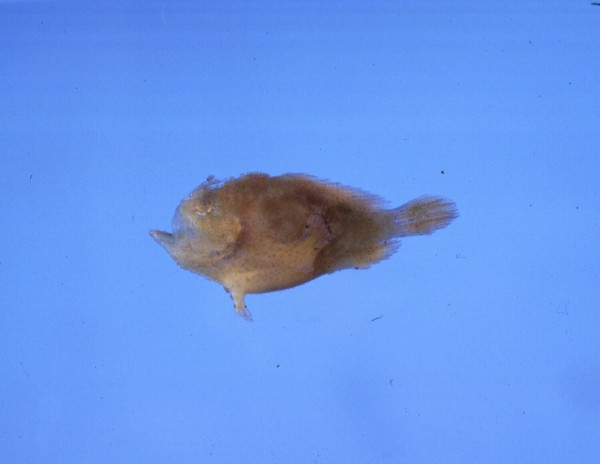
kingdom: Animalia
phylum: Chordata
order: Lophiiformes
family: Antennariidae
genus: Antennatus
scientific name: Antennatus coccineus
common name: Scarlet frogfish
